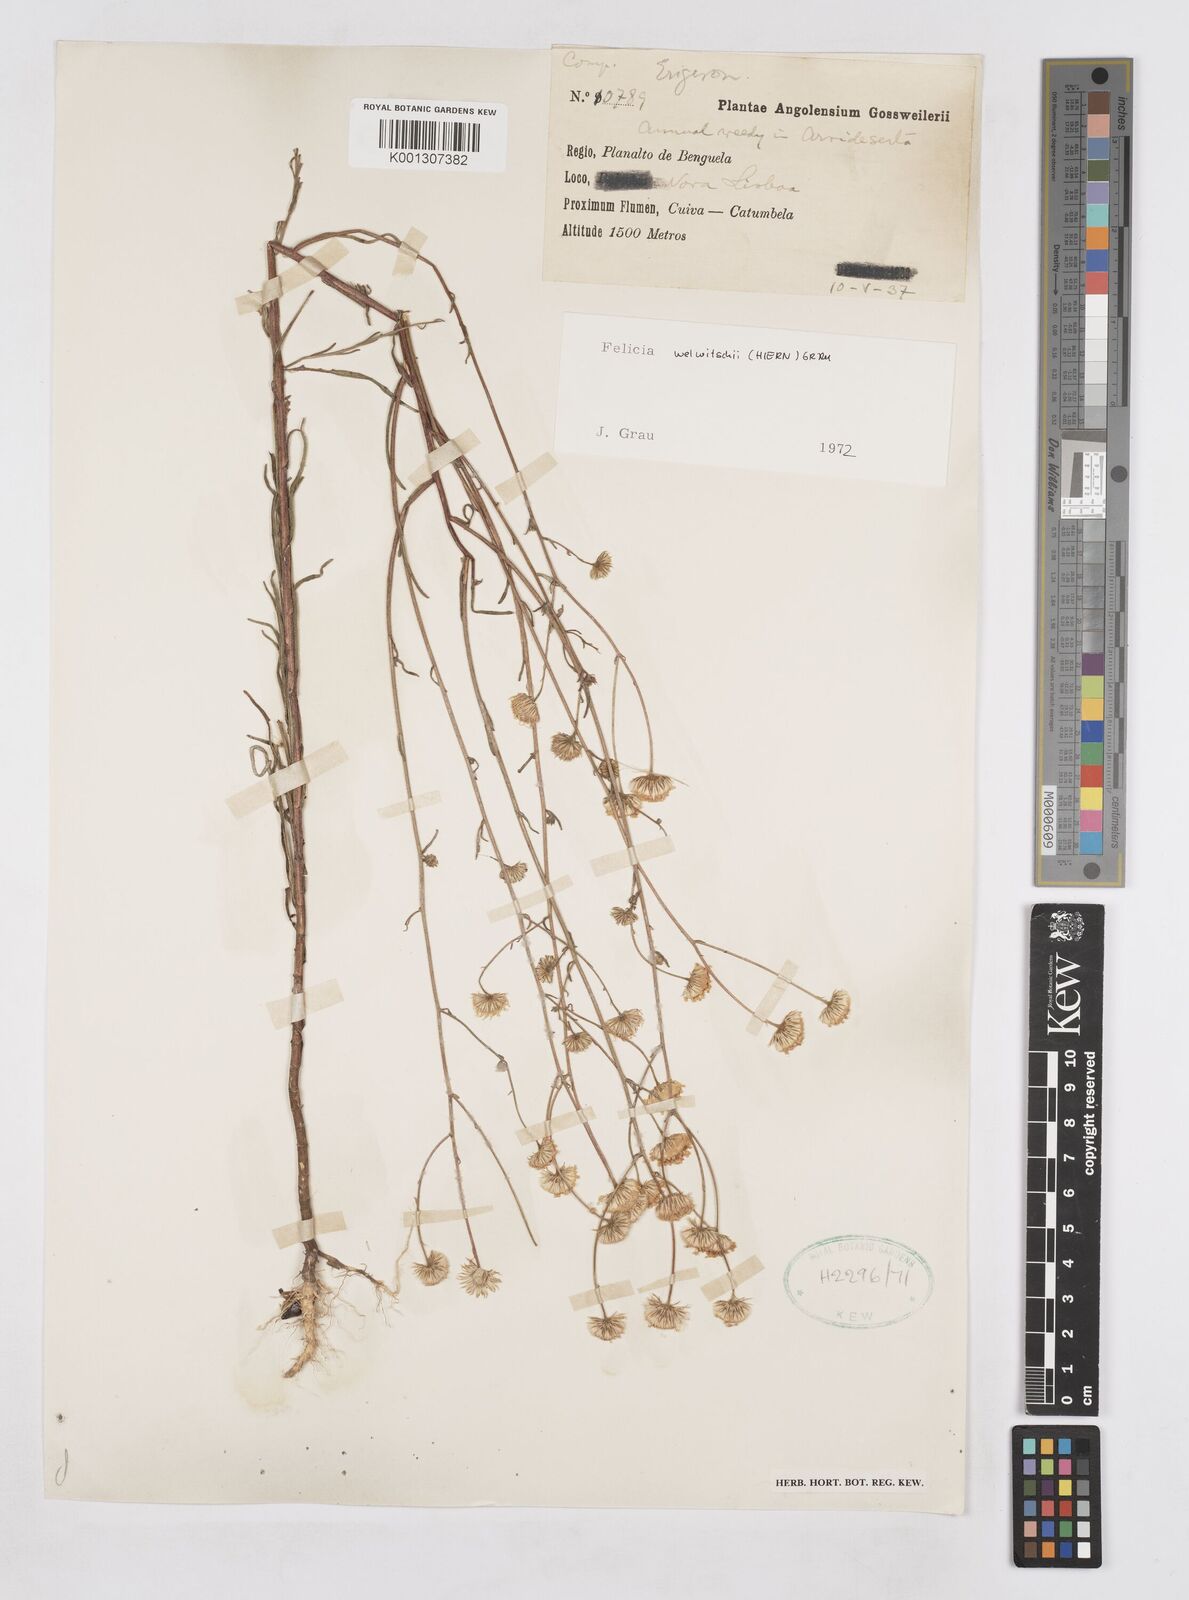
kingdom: Plantae
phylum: Tracheophyta
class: Magnoliopsida
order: Asterales
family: Asteraceae
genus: Felicia
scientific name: Felicia welwitschii
